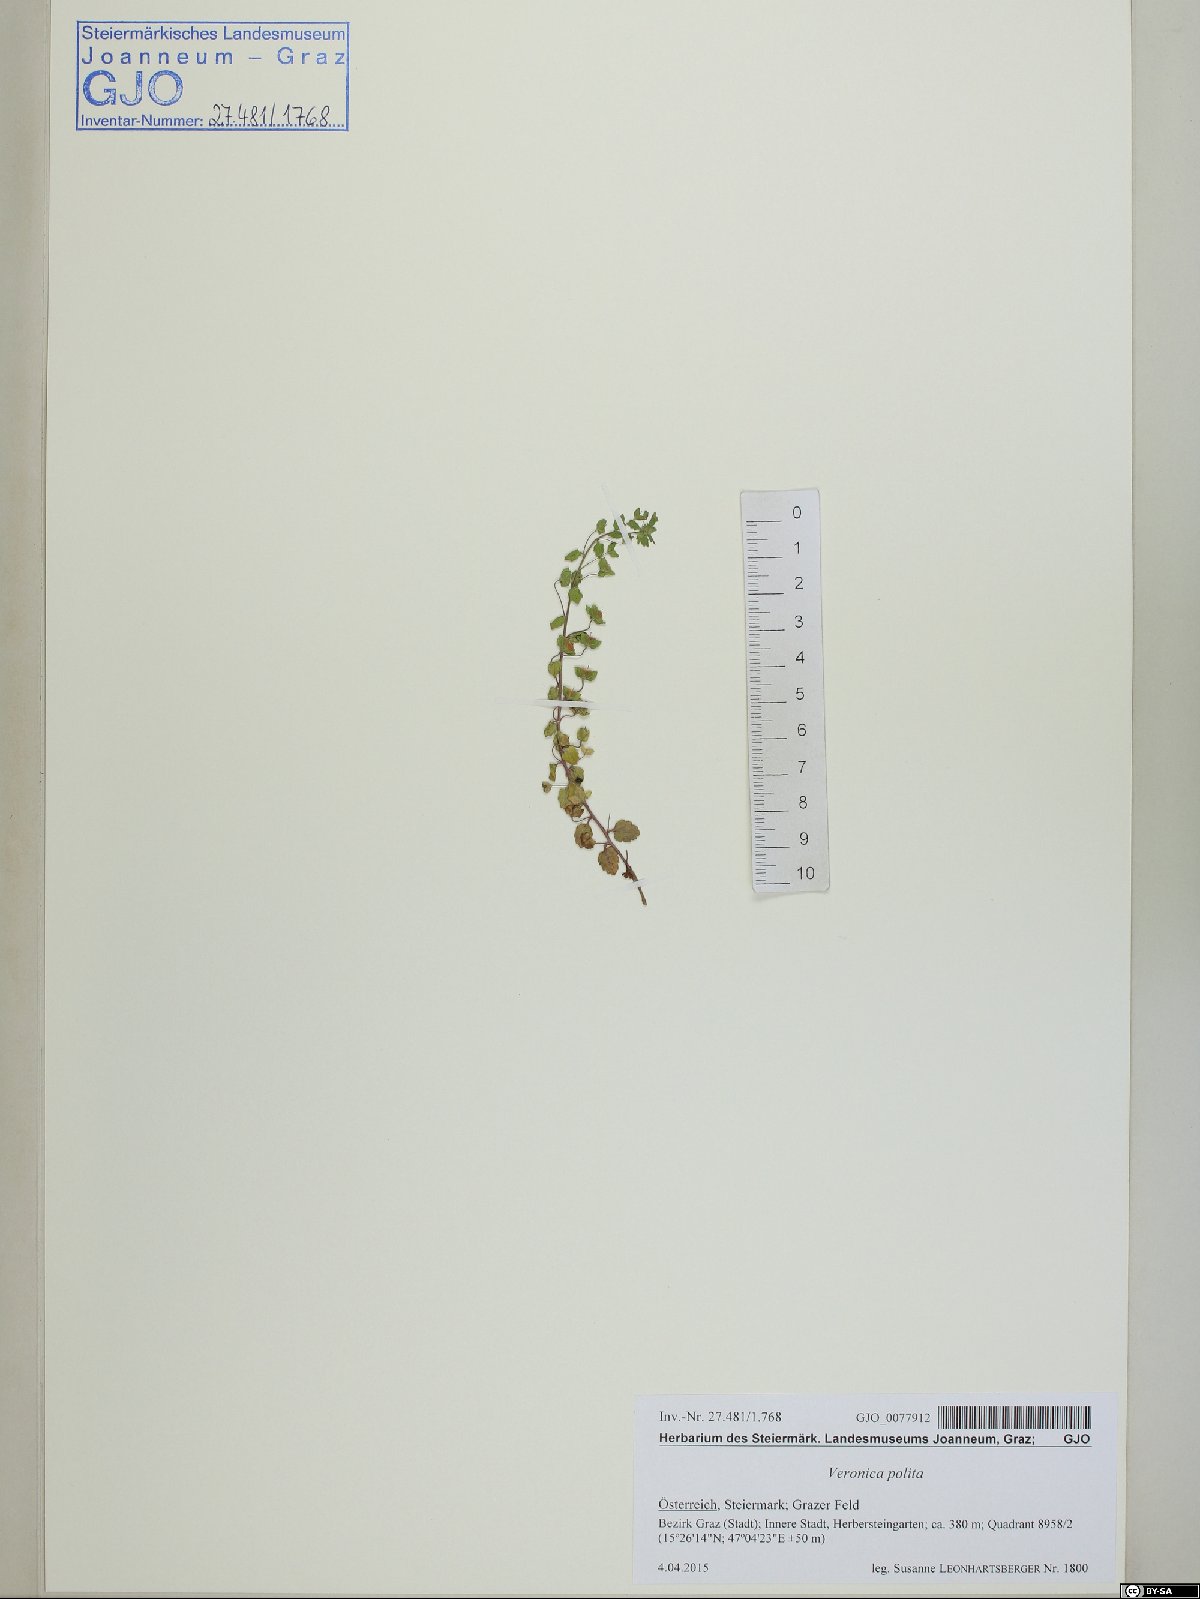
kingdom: Plantae
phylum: Tracheophyta
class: Magnoliopsida
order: Lamiales
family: Plantaginaceae
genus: Veronica
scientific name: Veronica polita
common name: Grey field-speedwell
